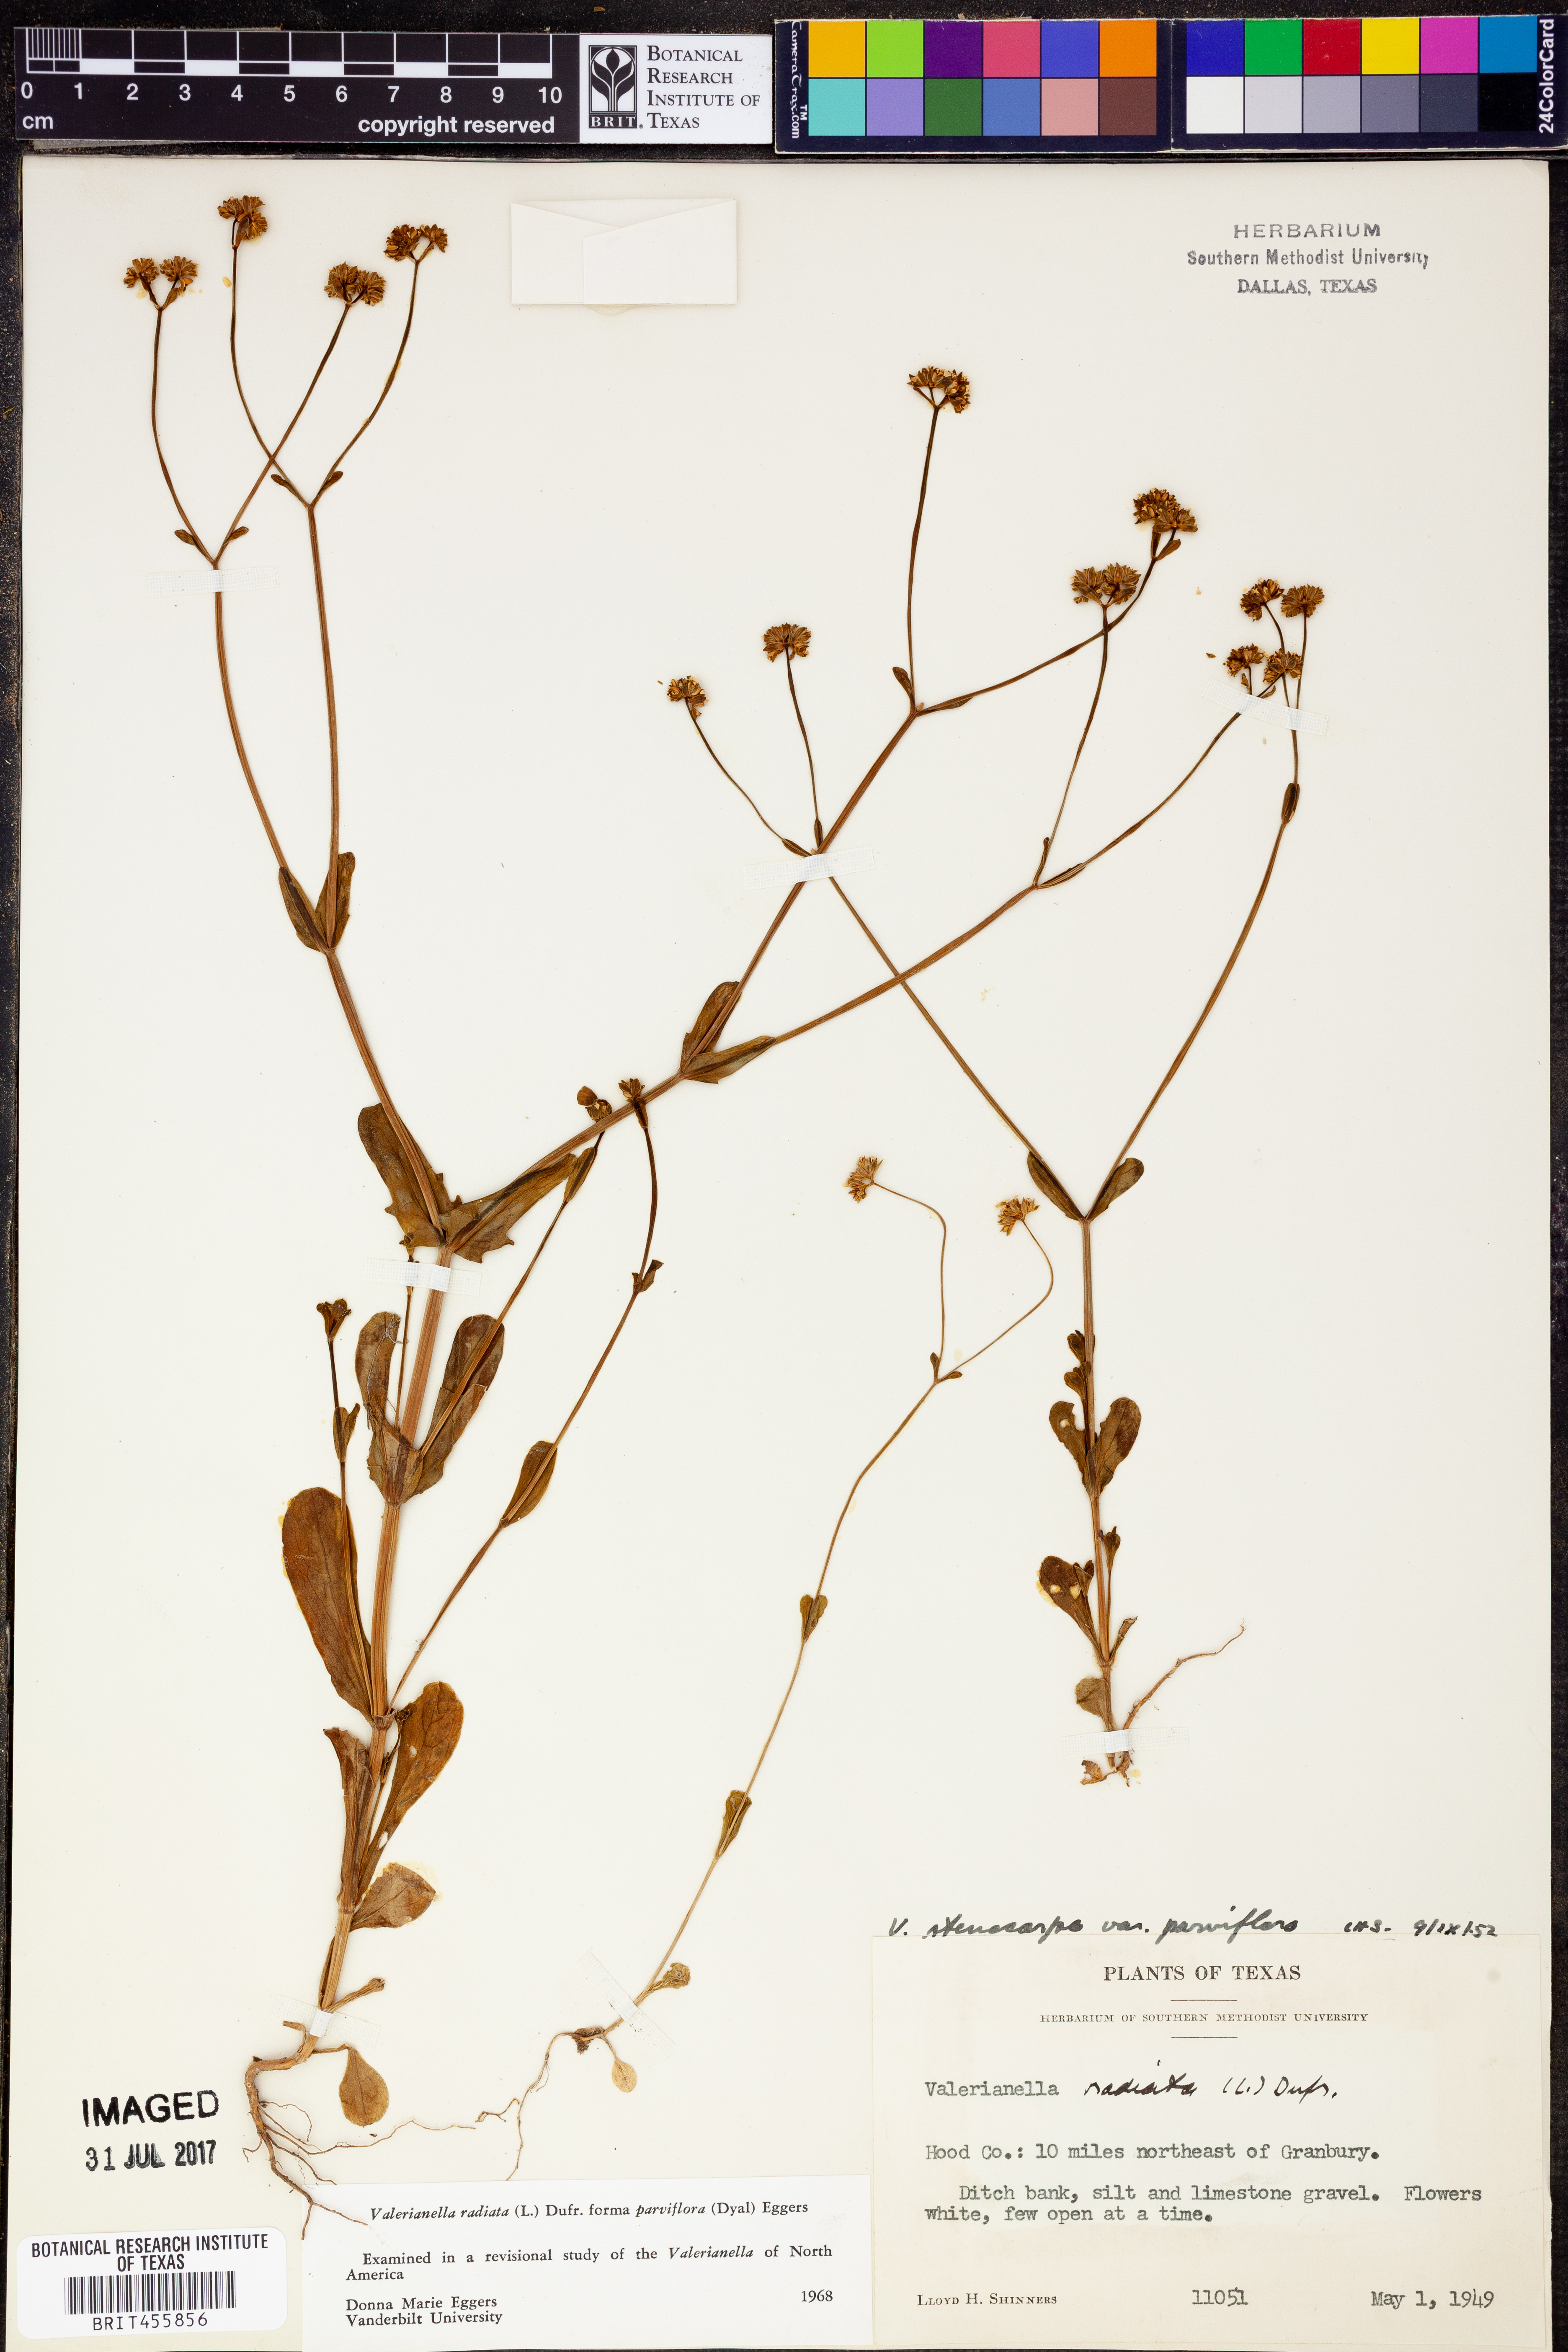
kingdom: Plantae
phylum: Tracheophyta
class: Magnoliopsida
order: Dipsacales
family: Caprifoliaceae
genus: Valerianella
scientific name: Valerianella radiata
